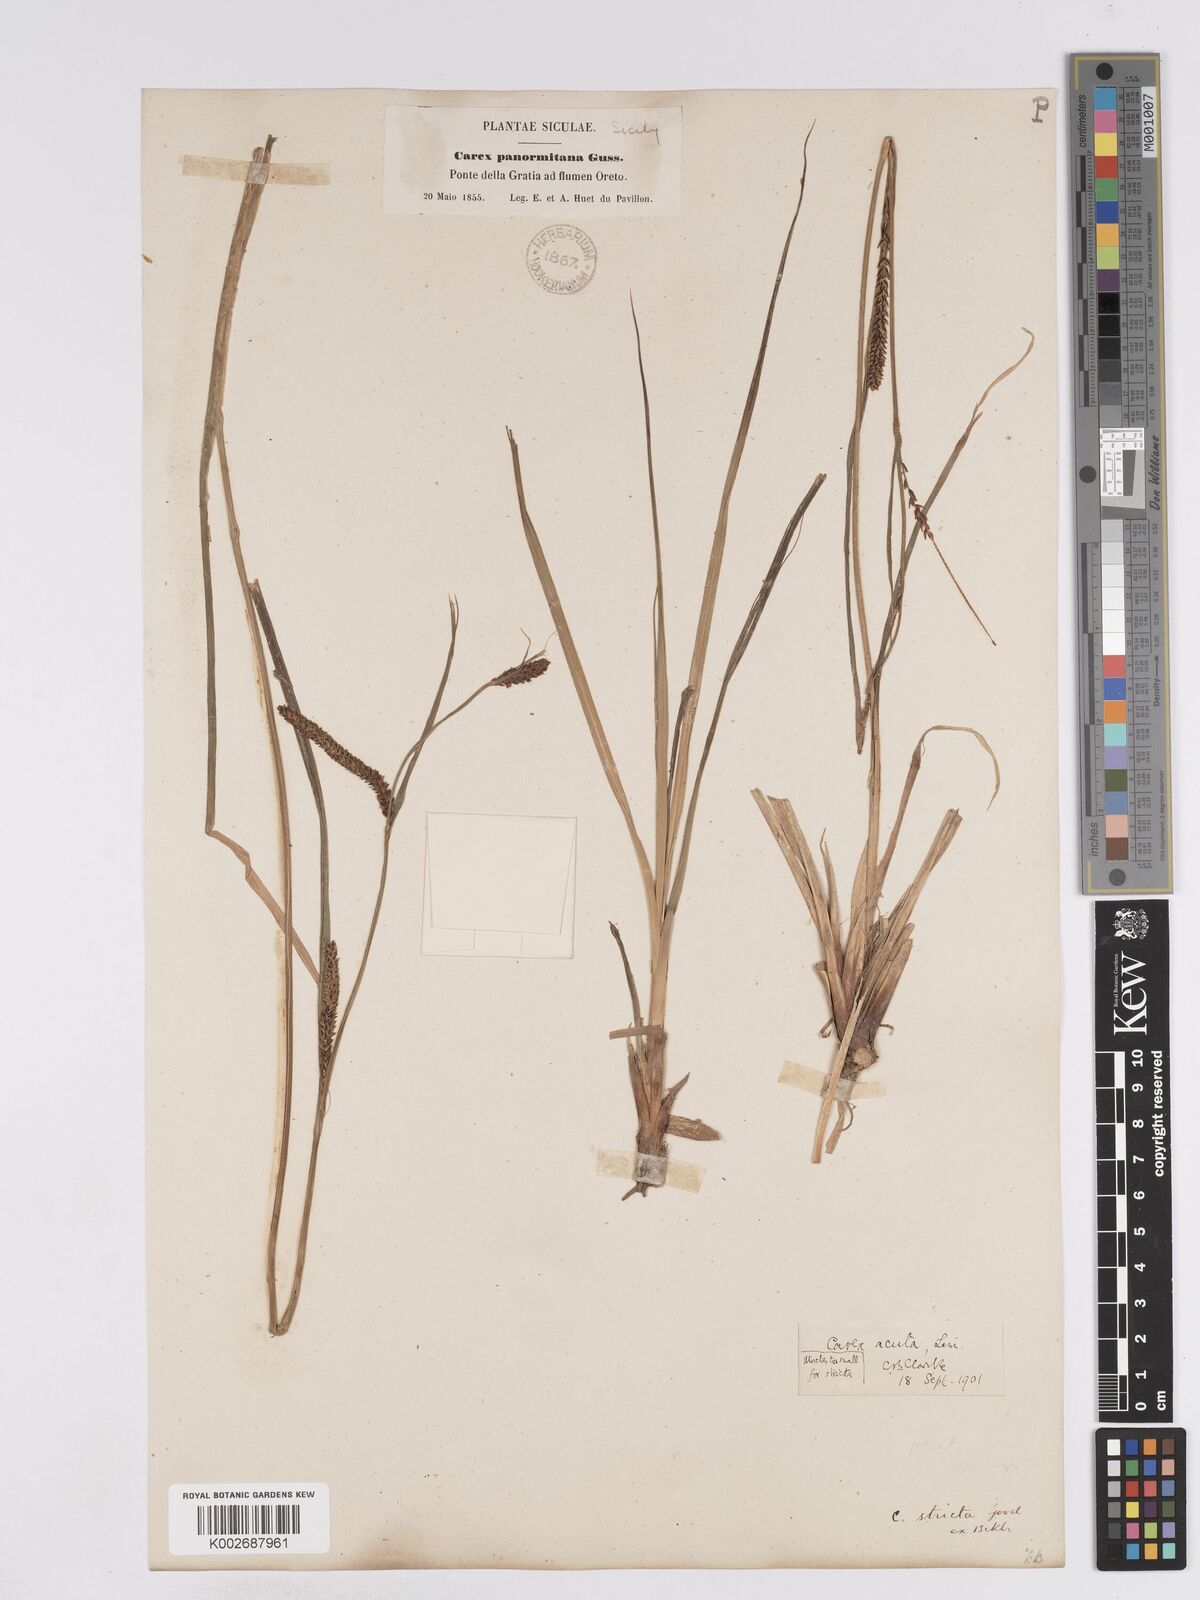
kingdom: Plantae
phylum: Tracheophyta
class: Liliopsida
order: Poales
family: Cyperaceae
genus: Carex
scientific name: Carex acuta
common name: Slender tufted-sedge
